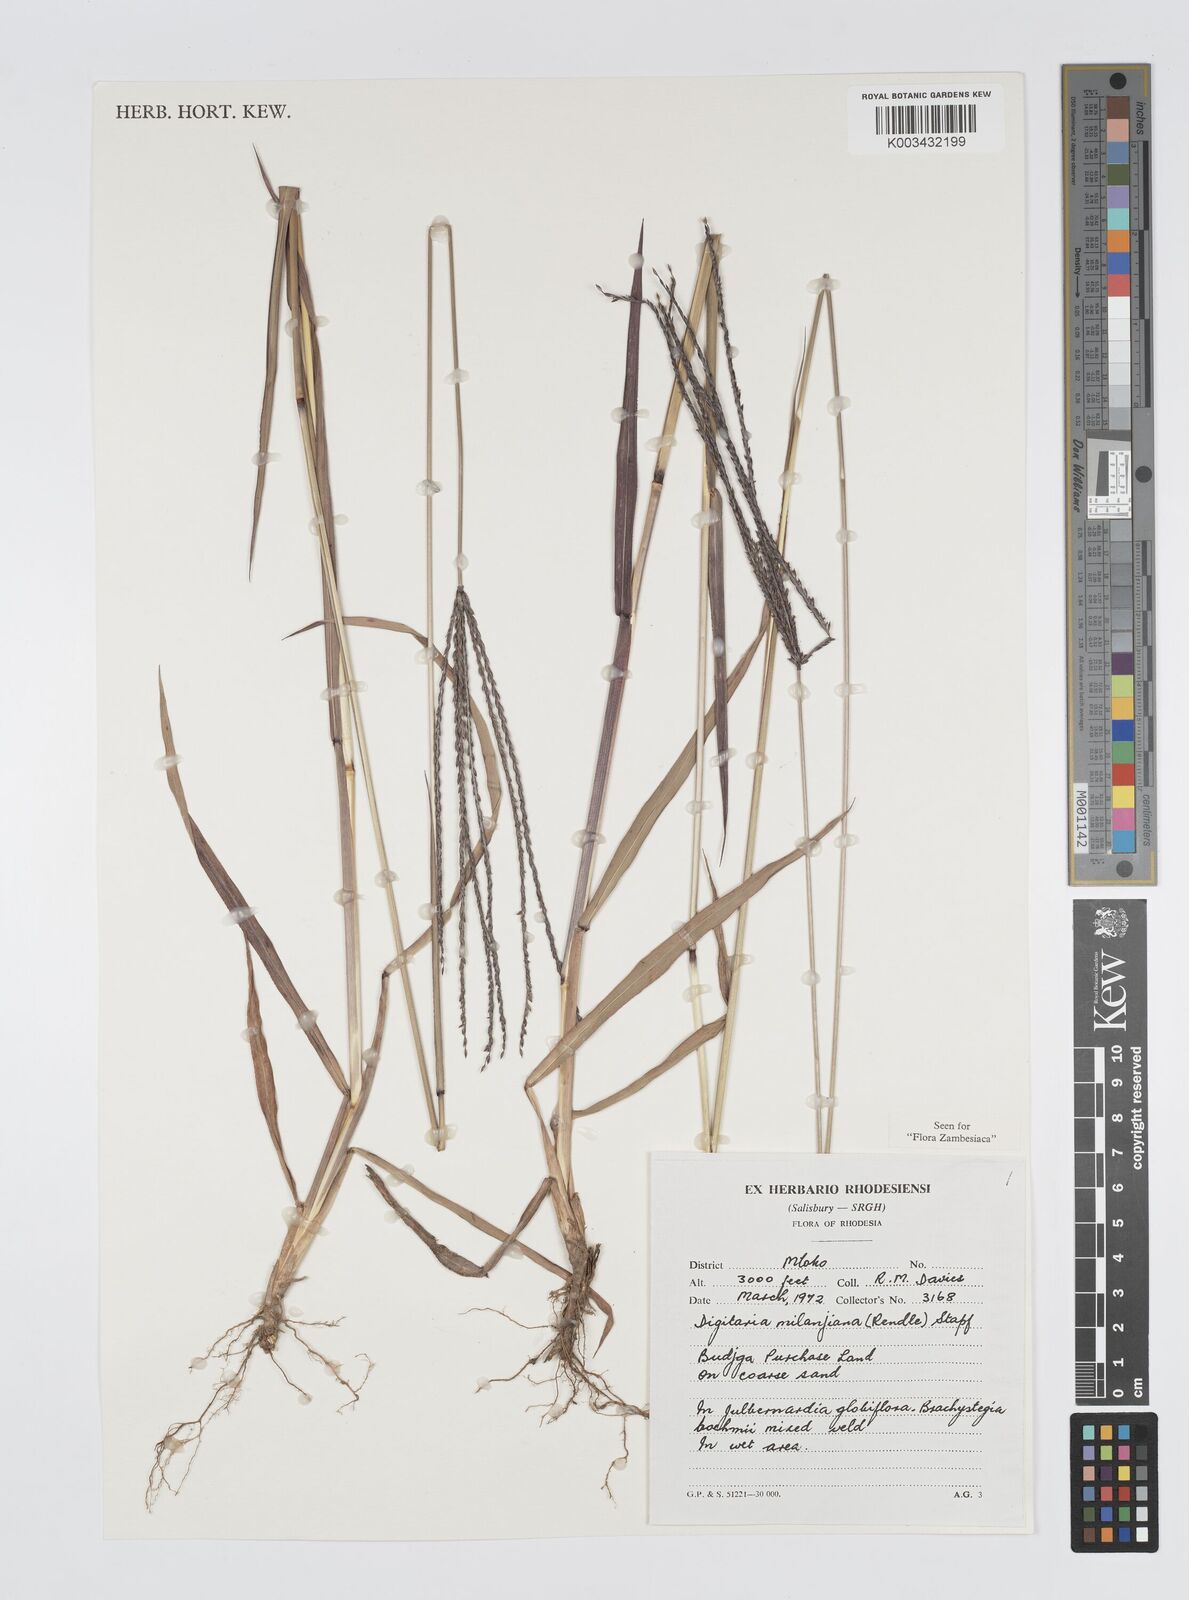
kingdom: Plantae
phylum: Tracheophyta
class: Liliopsida
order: Poales
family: Poaceae
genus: Digitaria
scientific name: Digitaria milanjiana
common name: Madagascar crabgrass
